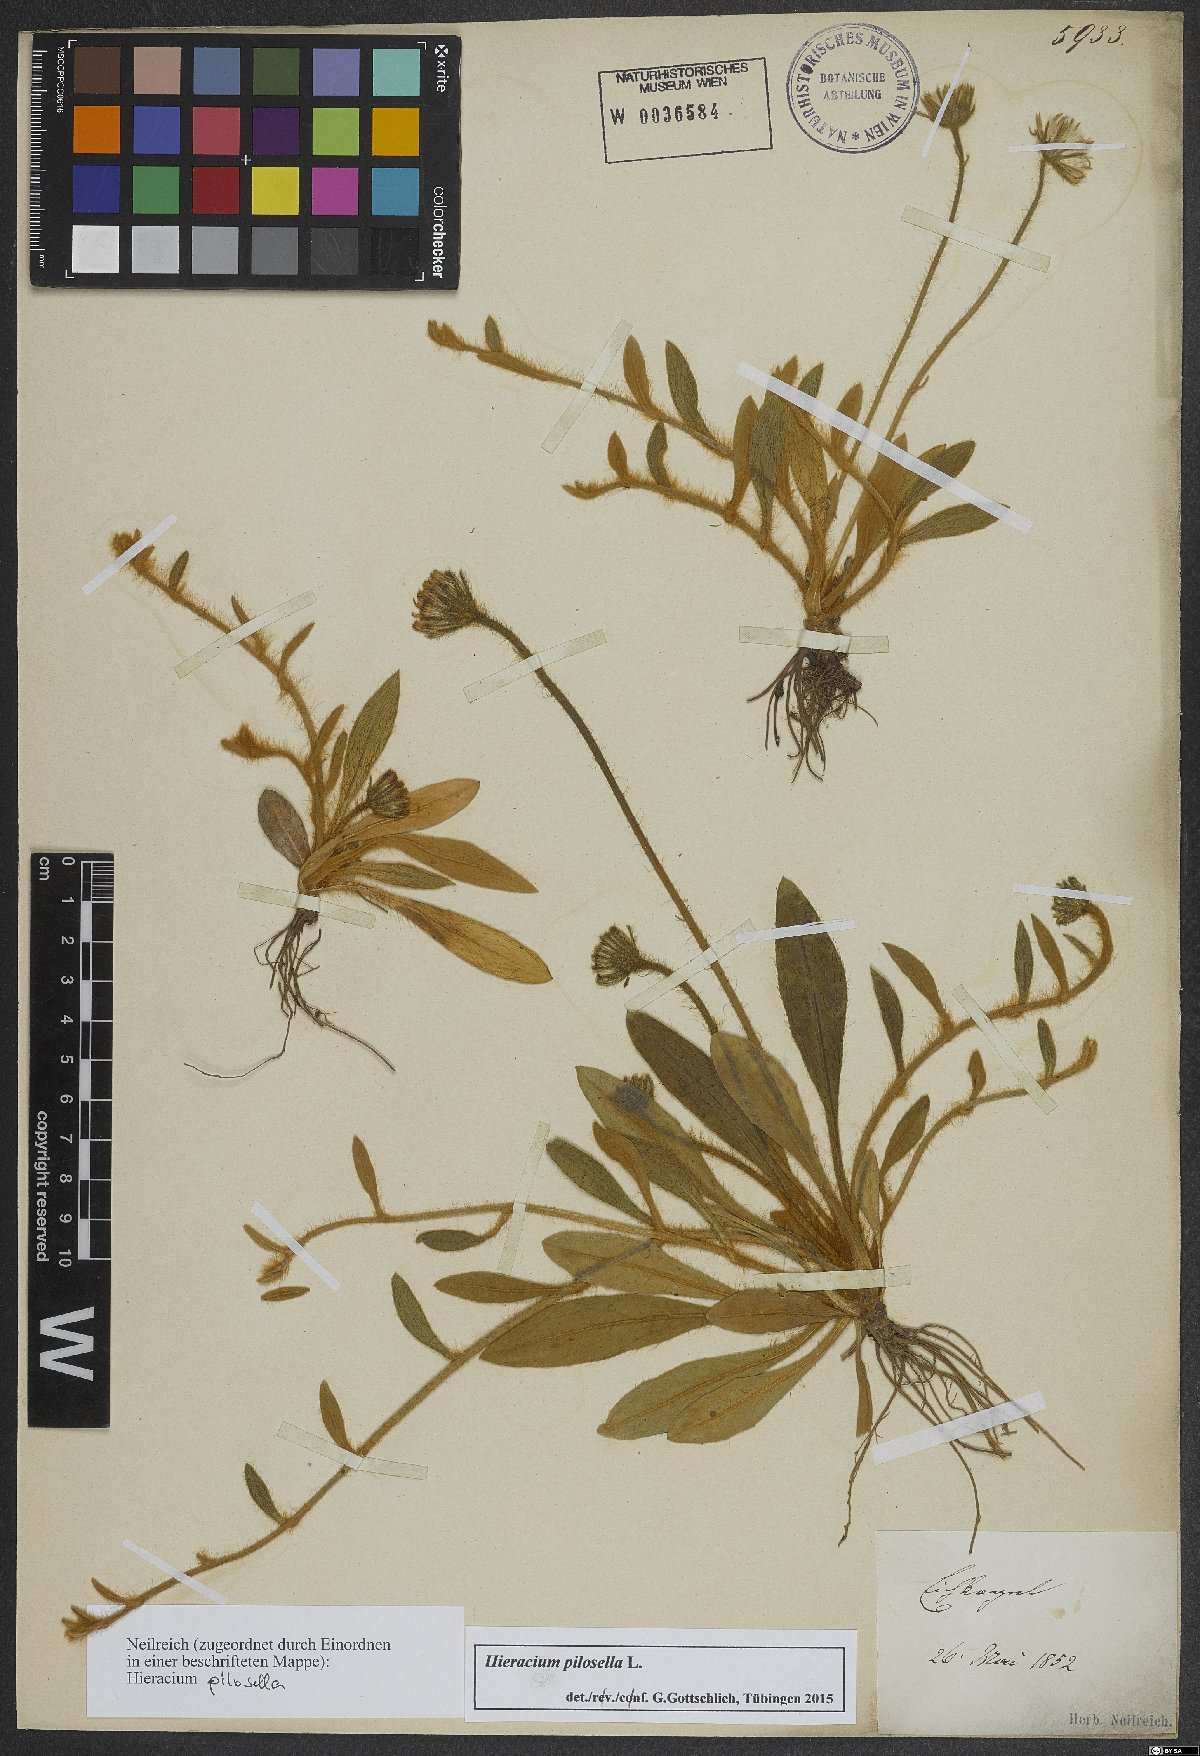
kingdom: Plantae
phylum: Tracheophyta
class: Magnoliopsida
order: Asterales
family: Asteraceae
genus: Pilosella
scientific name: Pilosella officinarum
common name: Mouse-ear hawkweed
